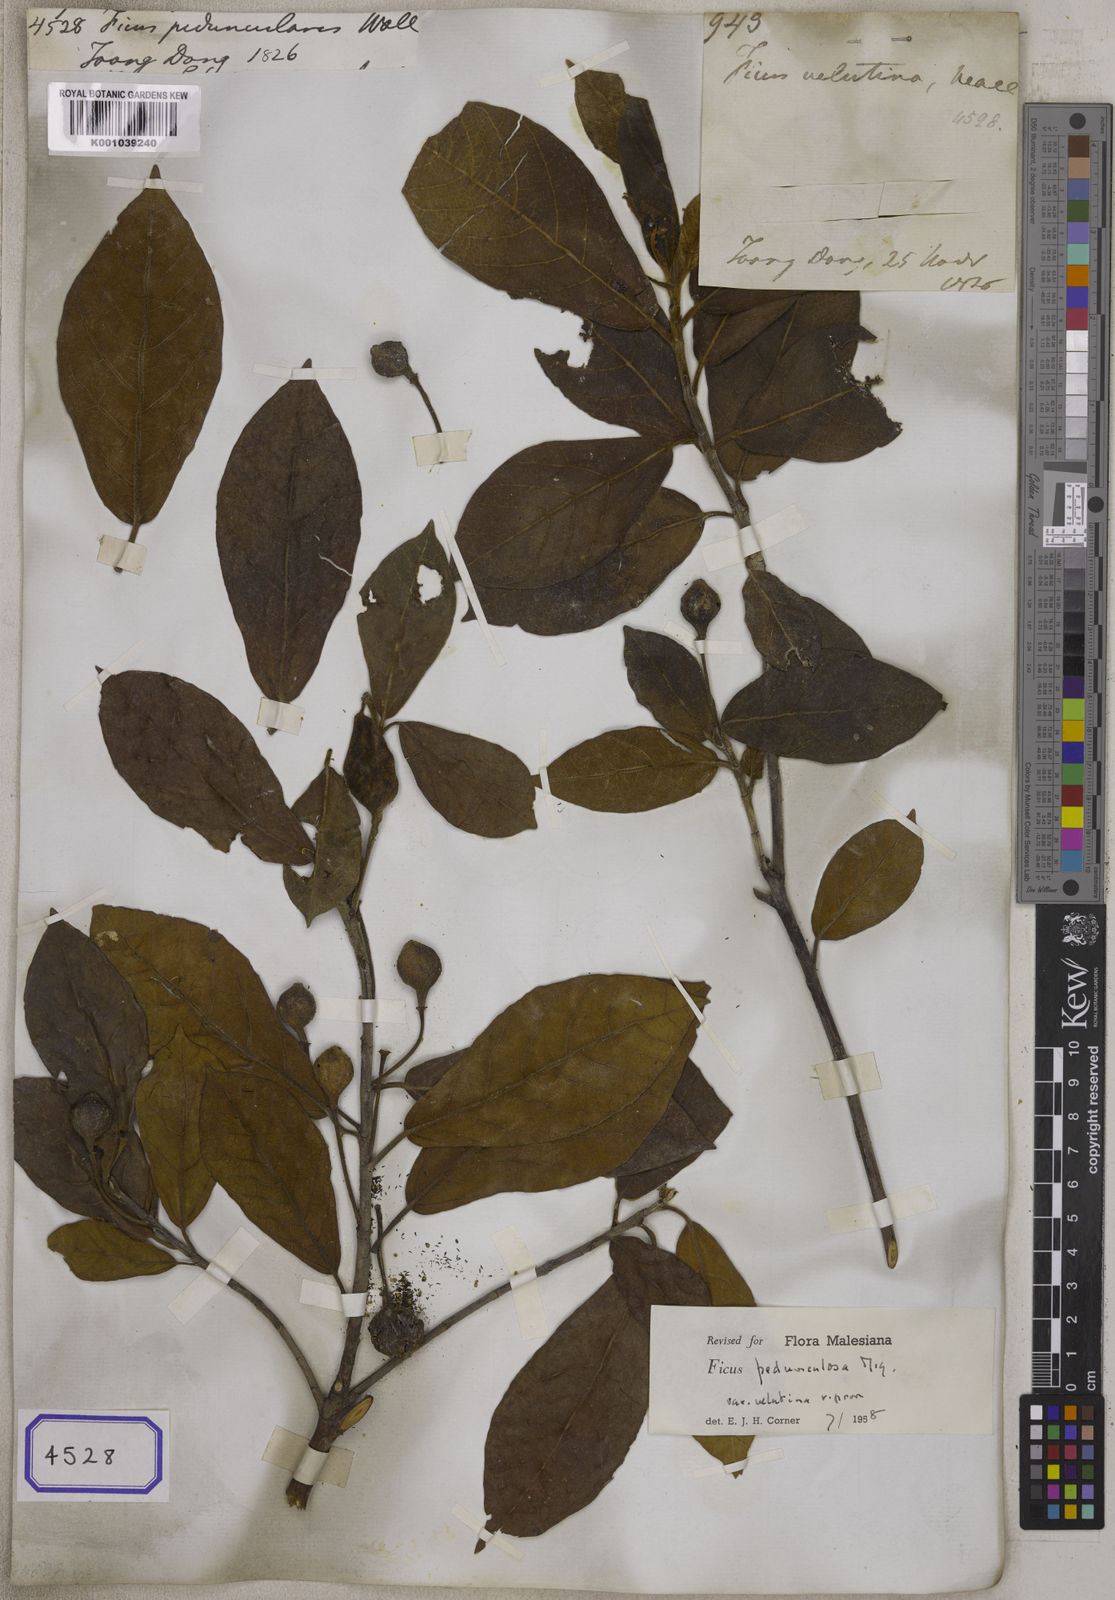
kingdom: Plantae
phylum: Tracheophyta
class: Magnoliopsida
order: Rosales
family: Moraceae
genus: Ficus
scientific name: Ficus
